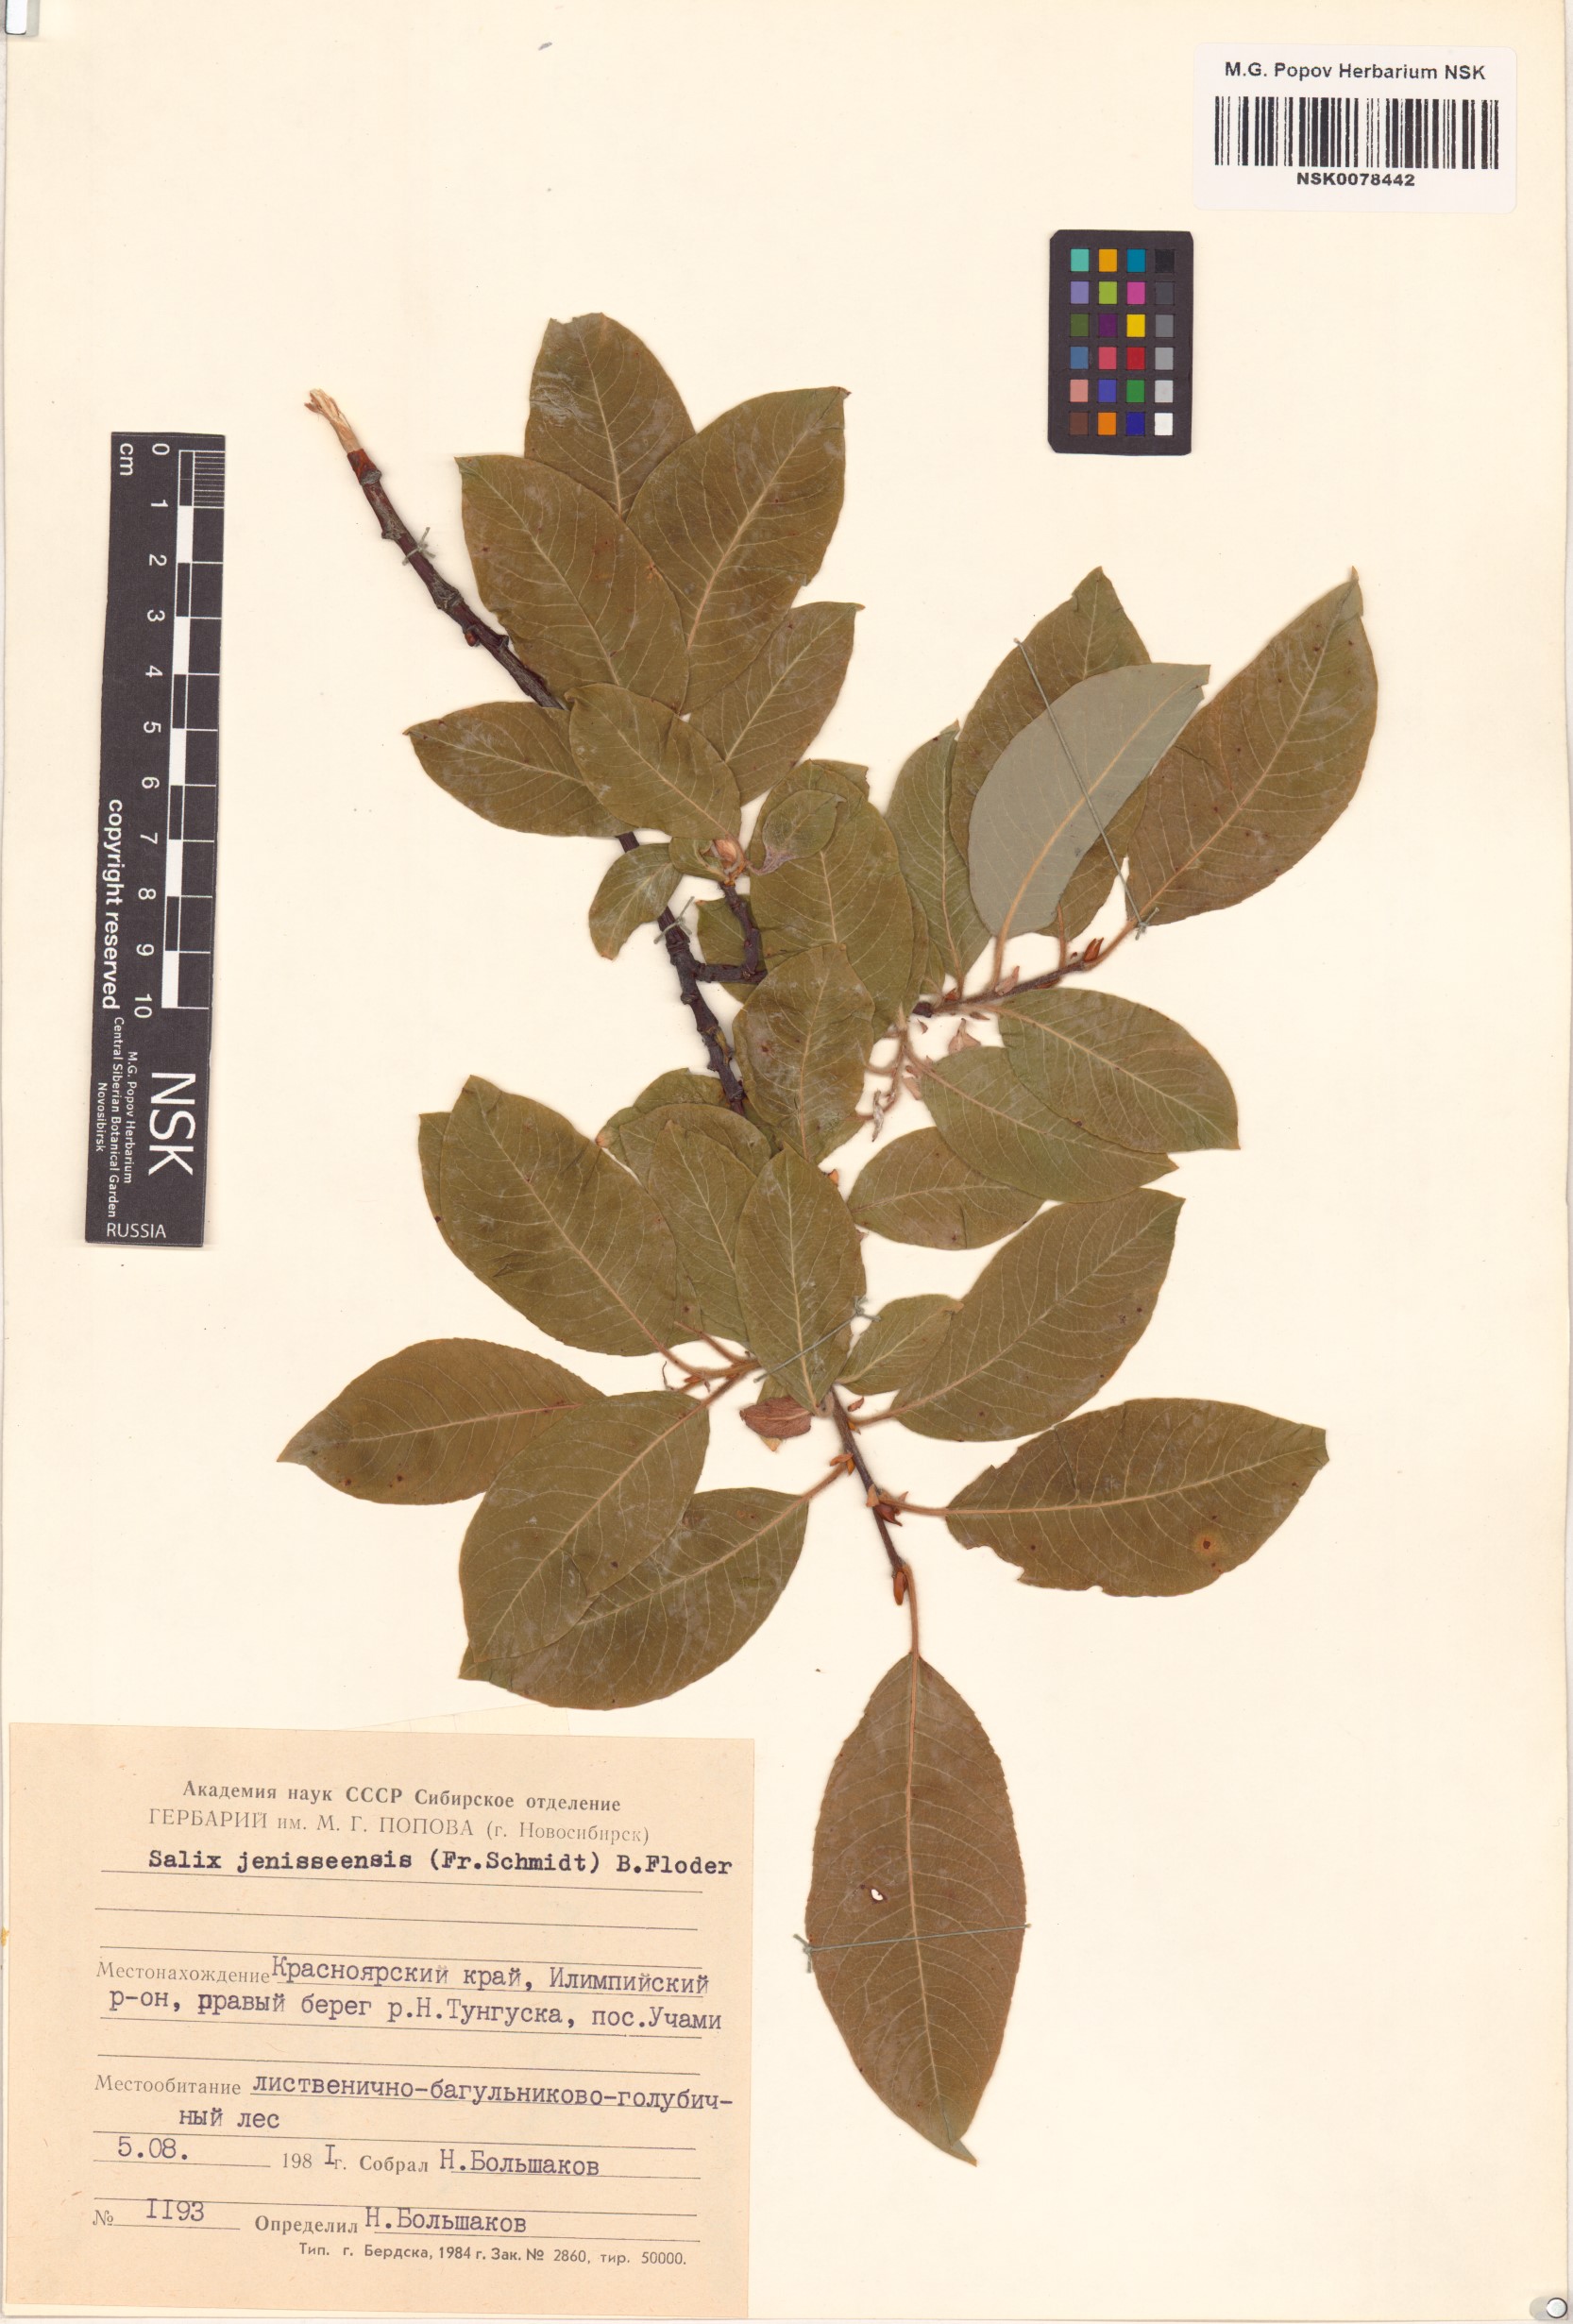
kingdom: Plantae
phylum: Tracheophyta
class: Magnoliopsida
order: Malpighiales
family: Salicaceae
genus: Salix
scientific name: Salix jenisseensis
